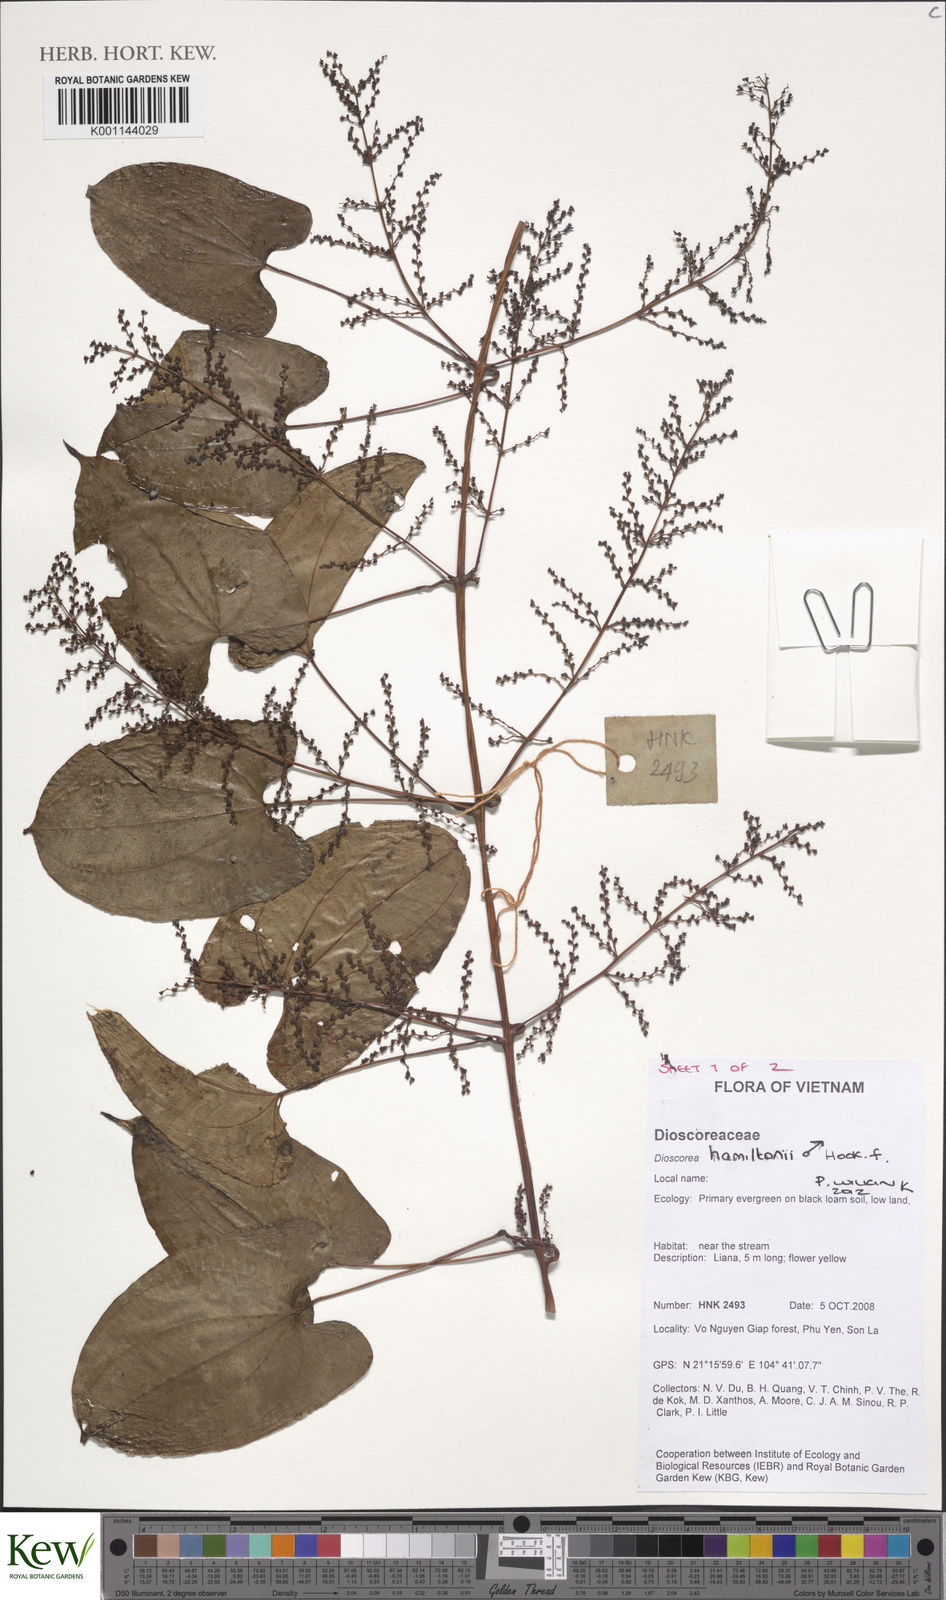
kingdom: Plantae
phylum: Tracheophyta
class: Liliopsida
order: Dioscoreales
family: Dioscoreaceae
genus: Dioscorea
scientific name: Dioscorea hamiltonii
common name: Mountain yam
